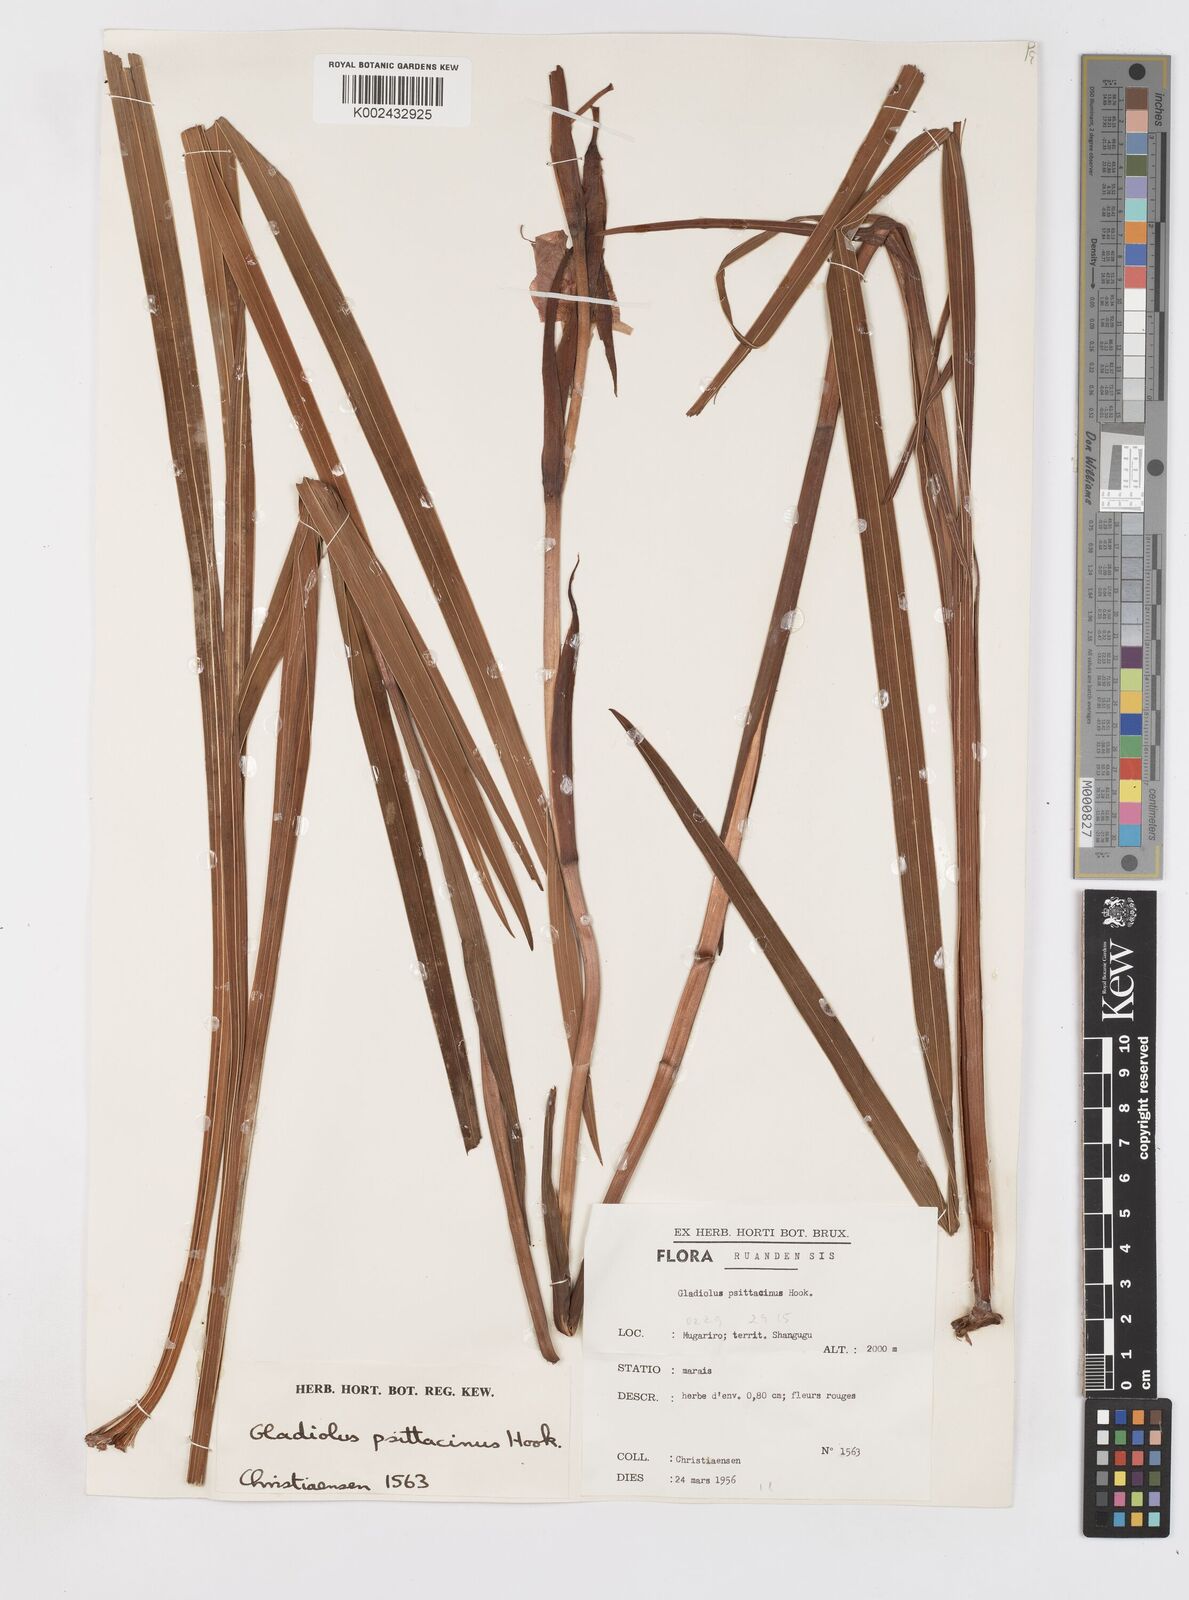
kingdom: Plantae
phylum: Tracheophyta
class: Liliopsida
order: Asparagales
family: Iridaceae
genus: Gladiolus
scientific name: Gladiolus dalenii
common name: Cornflag
